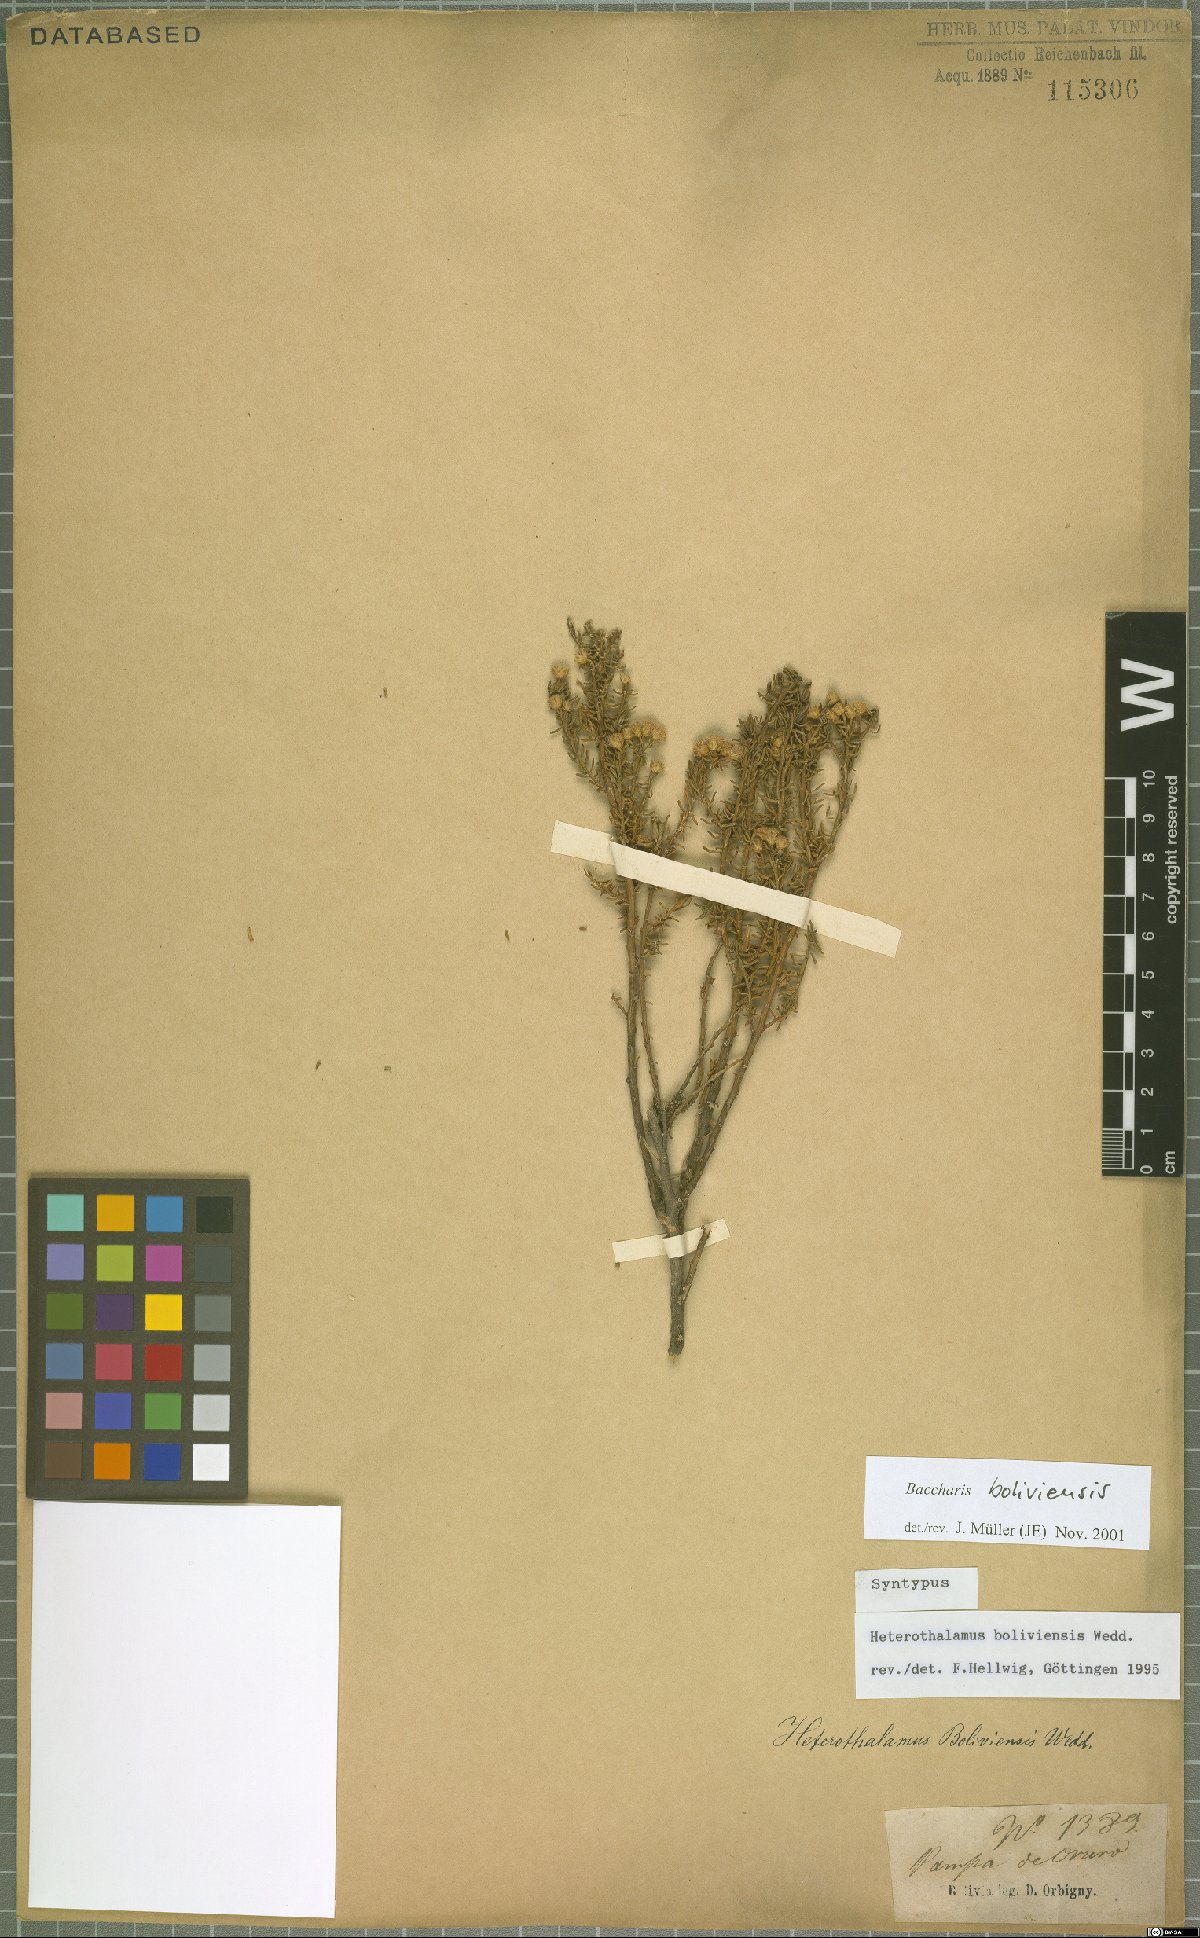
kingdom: Plantae
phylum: Tracheophyta
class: Magnoliopsida
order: Asterales
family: Asteraceae
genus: Baccharis
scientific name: Baccharis bolivensis
